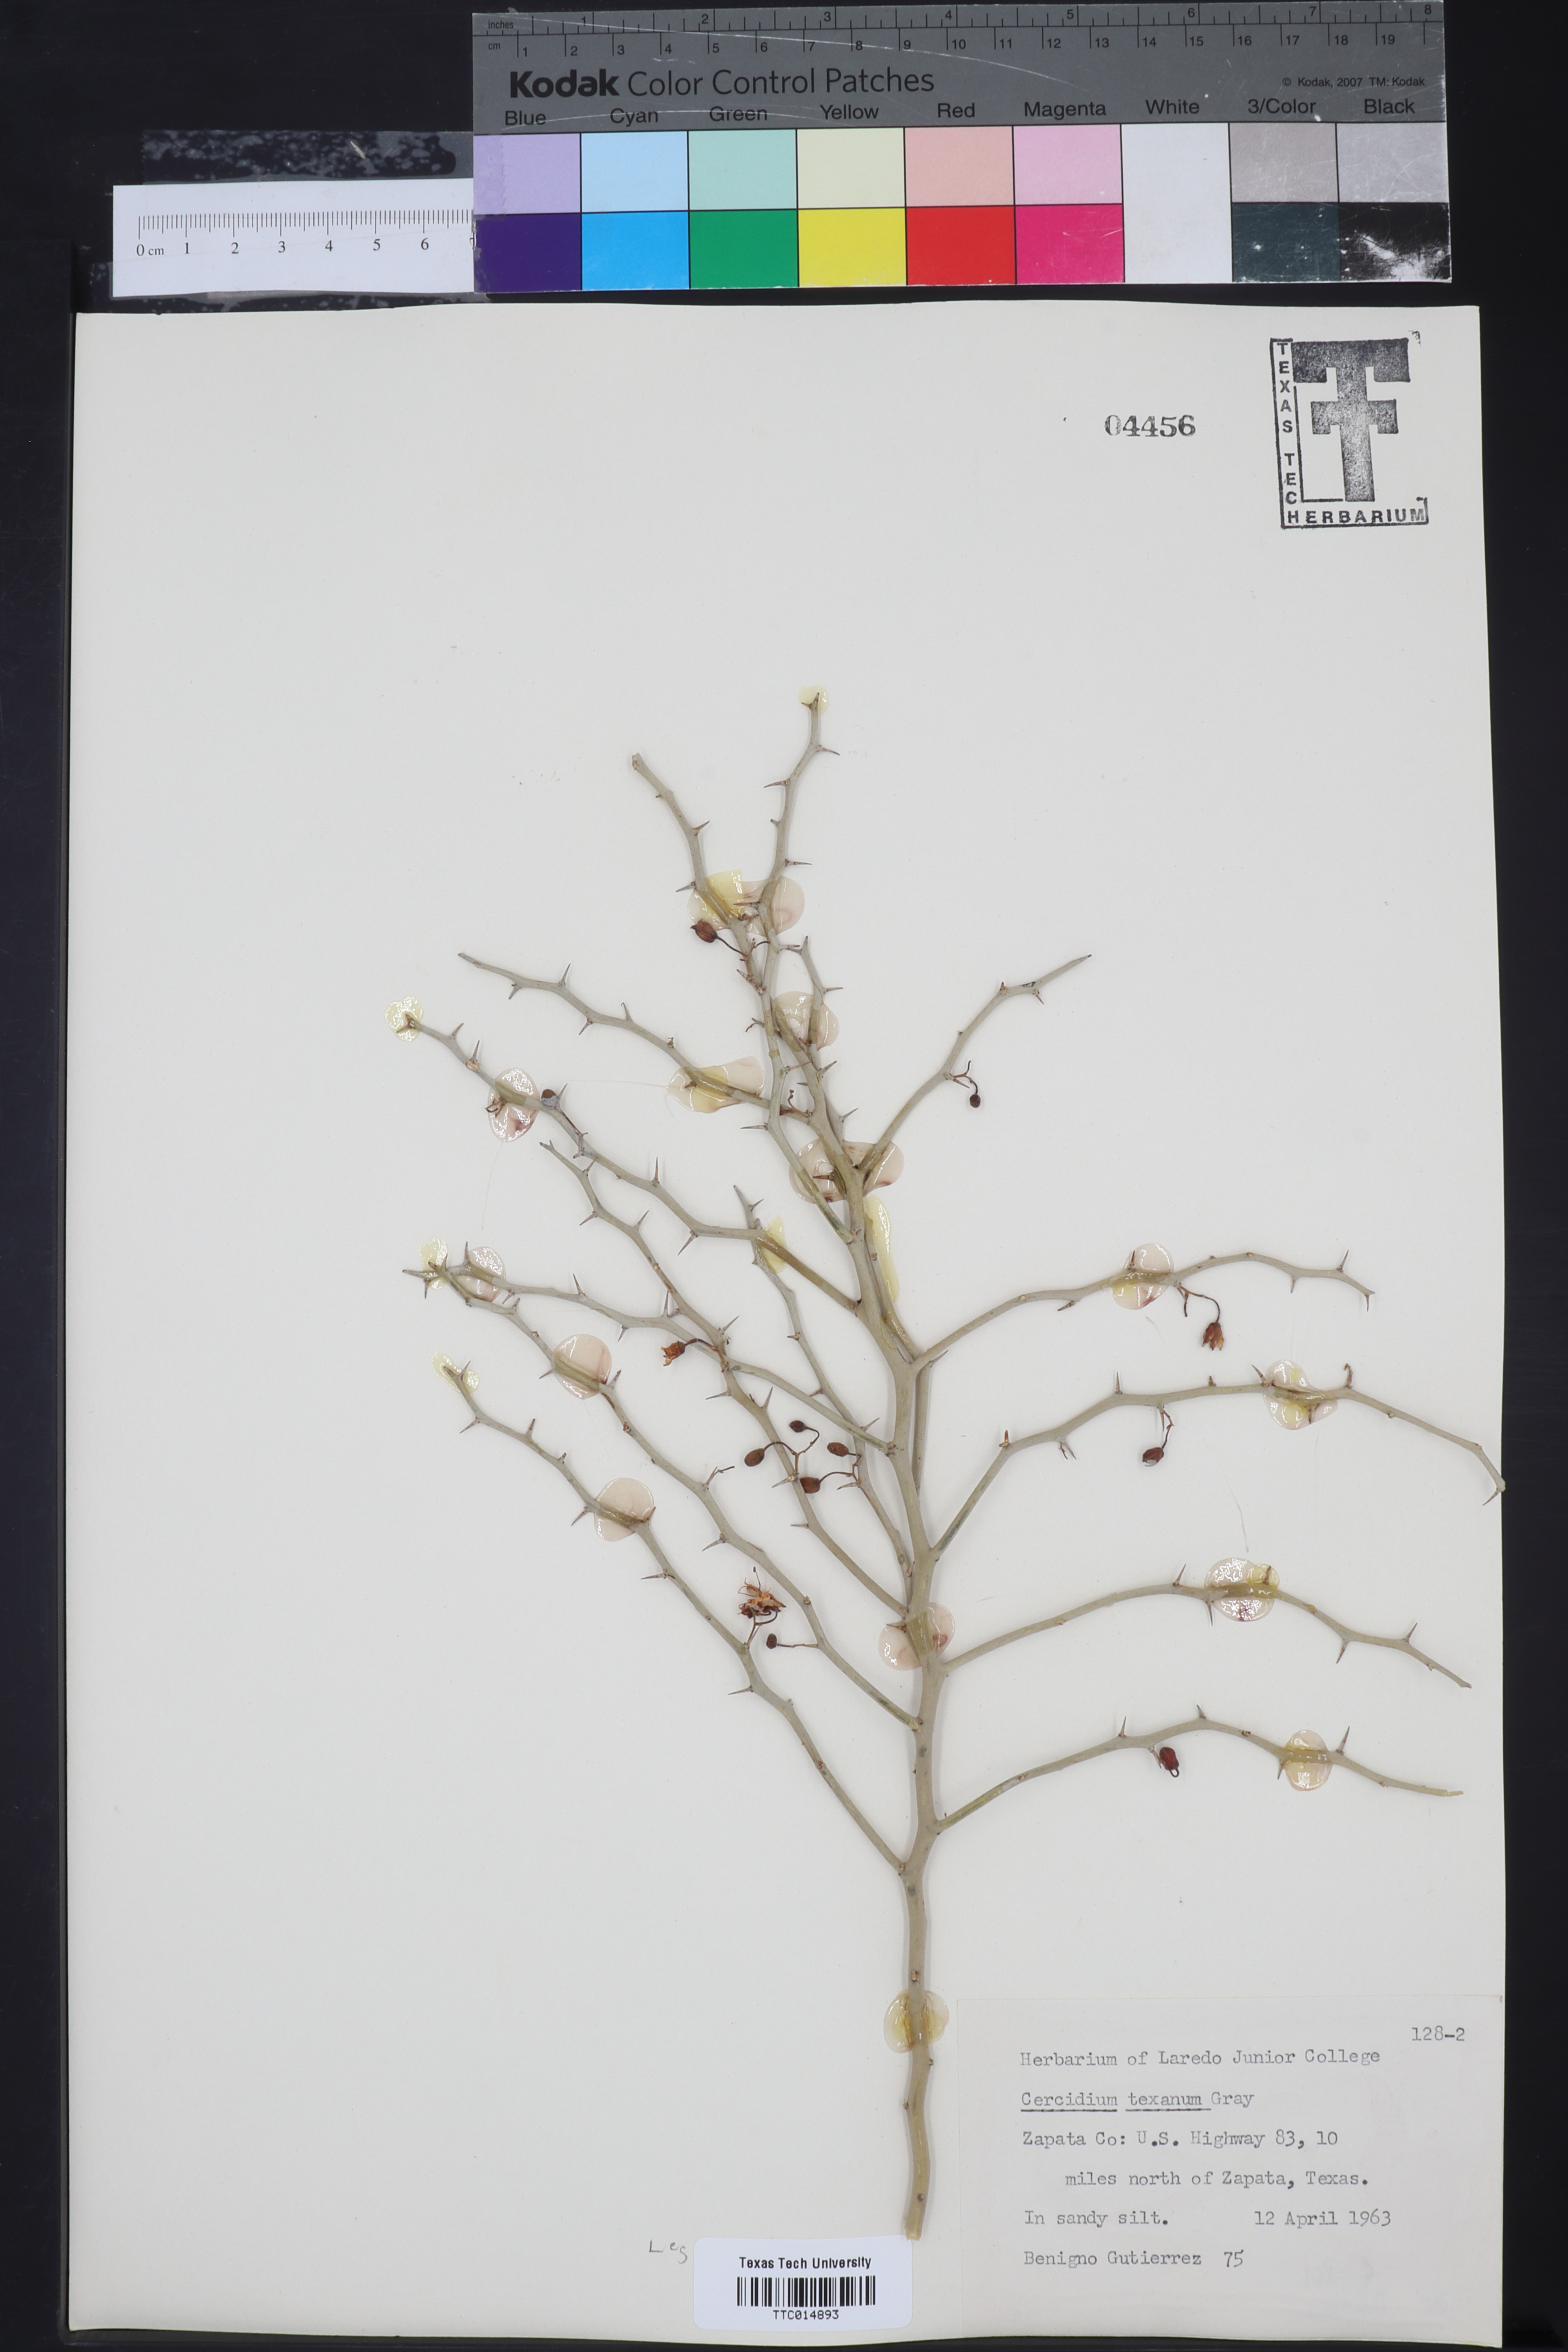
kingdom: Plantae
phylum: Tracheophyta
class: Magnoliopsida
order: Fabales
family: Fabaceae
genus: Parkinsonia
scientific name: Parkinsonia texana
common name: Texas paloverde
